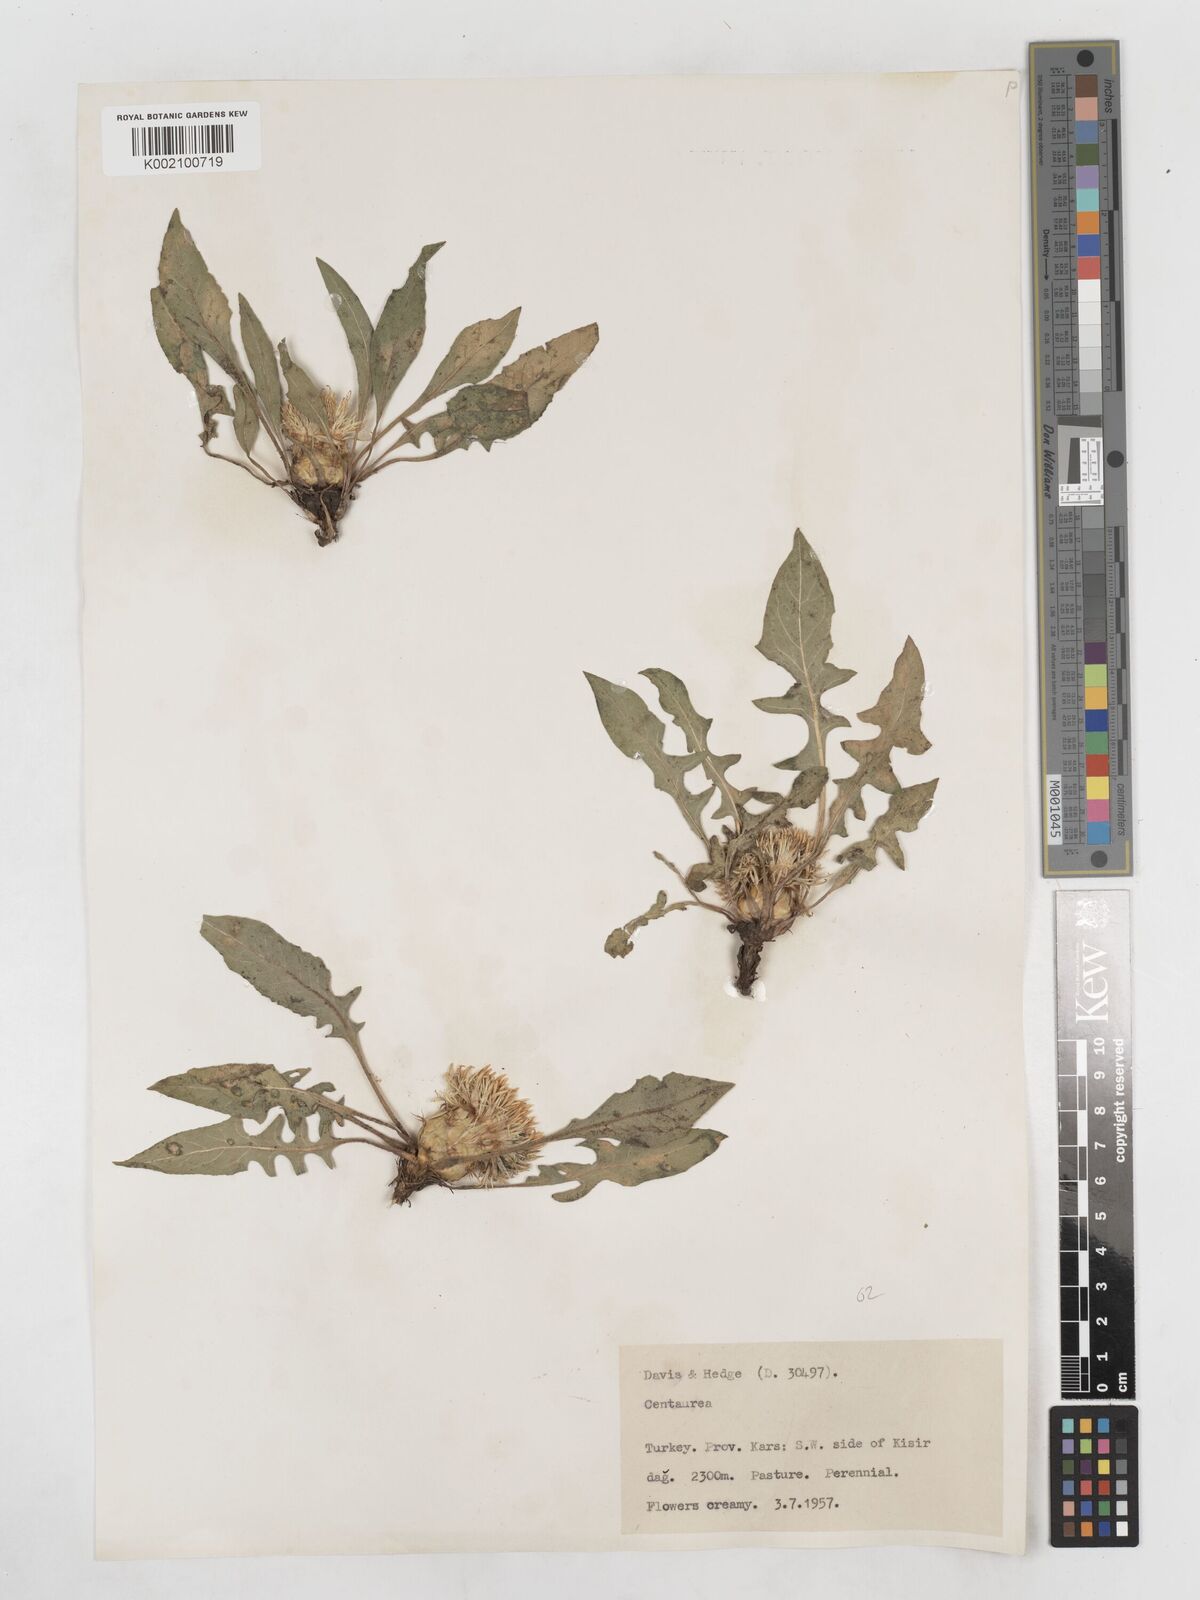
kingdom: Plantae
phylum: Tracheophyta
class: Magnoliopsida
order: Asterales
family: Asteraceae
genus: Centaurea
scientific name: Centaurea rhizantha
